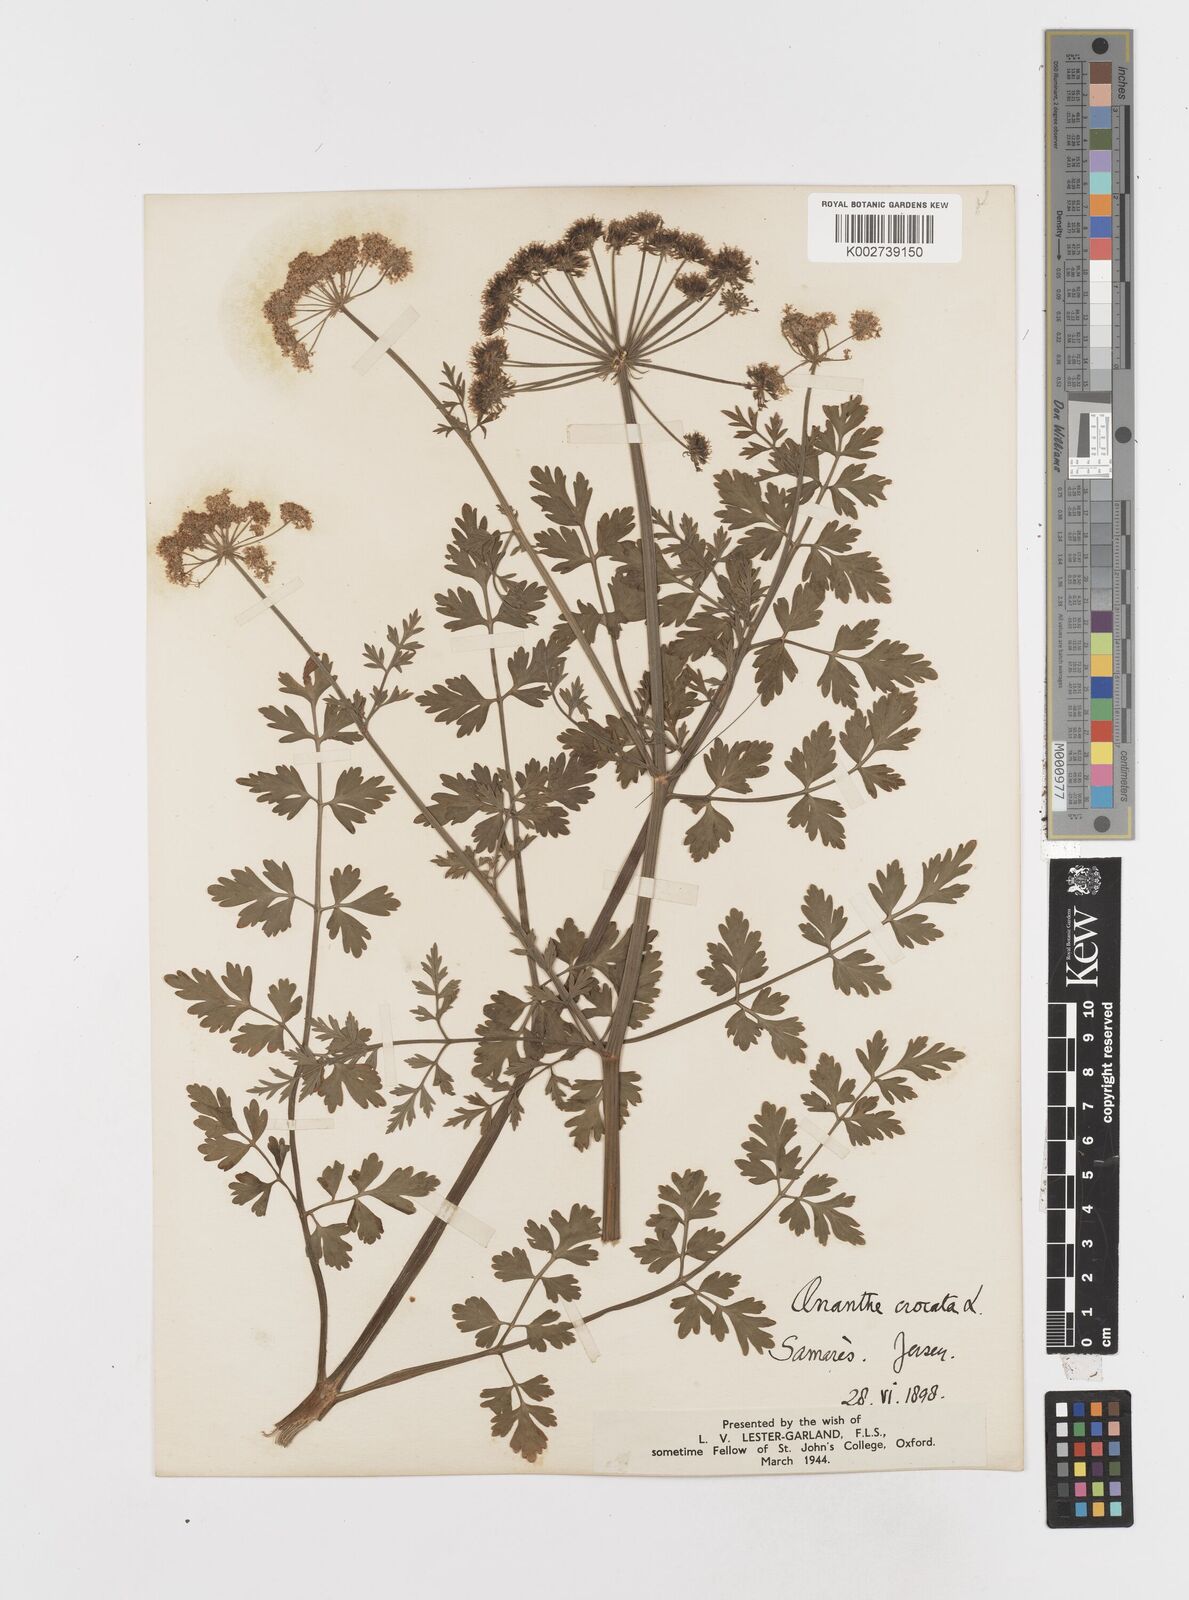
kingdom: Plantae
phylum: Tracheophyta
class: Magnoliopsida
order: Apiales
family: Apiaceae
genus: Oenanthe
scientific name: Oenanthe crocata
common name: Hemlock water-dropwort
